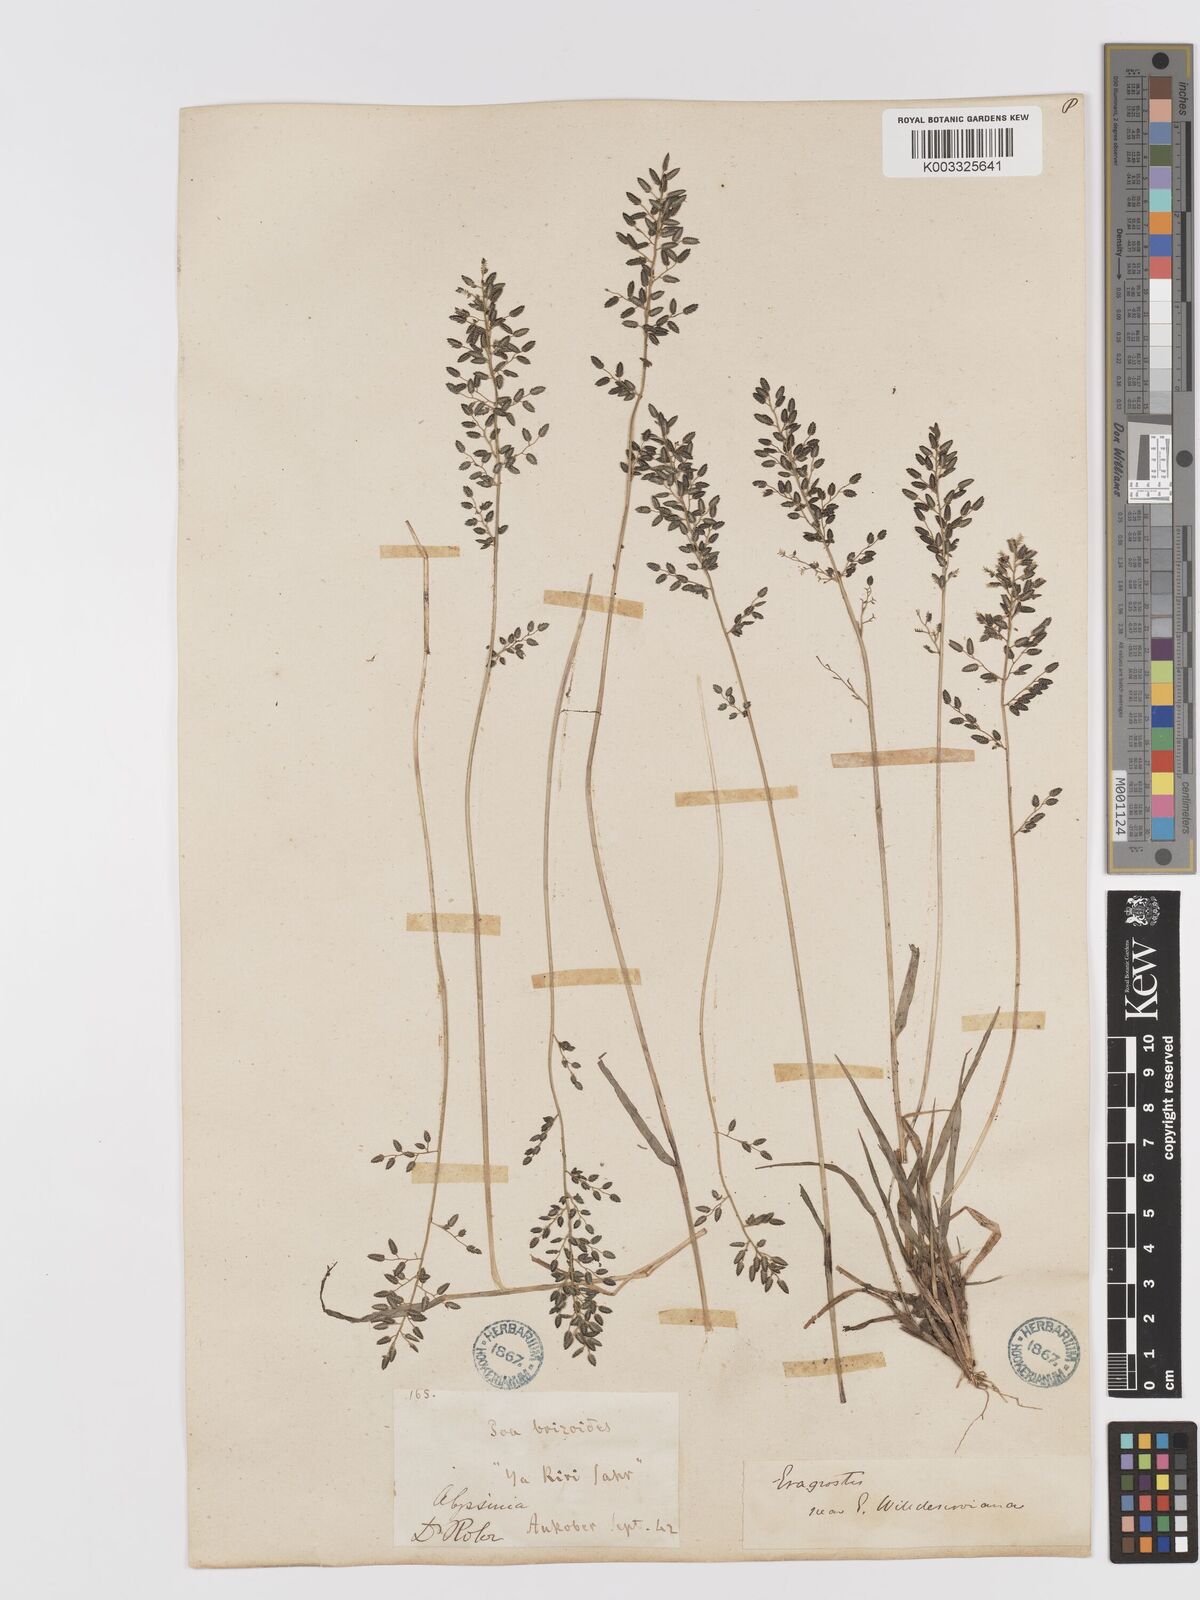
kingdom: Plantae
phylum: Tracheophyta
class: Liliopsida
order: Poales
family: Poaceae
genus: Eragrostis
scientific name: Eragrostis schweinfurthii
